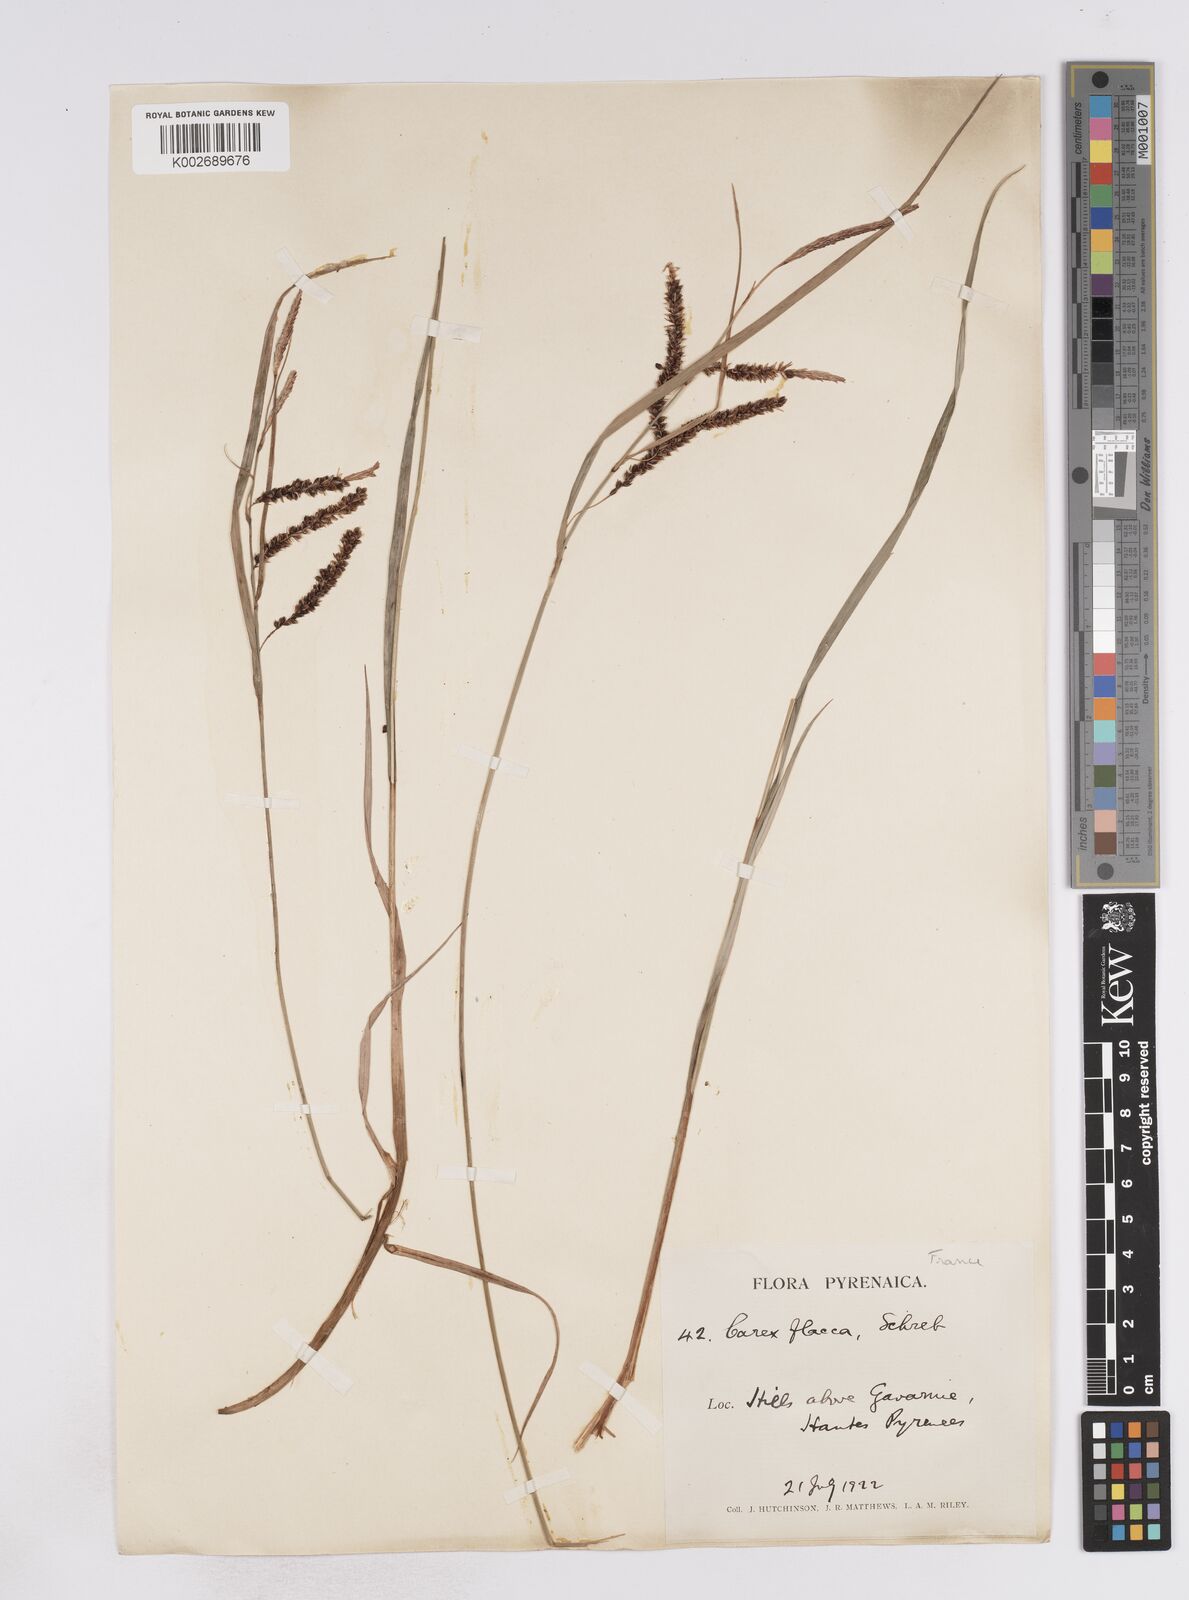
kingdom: Plantae
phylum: Tracheophyta
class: Liliopsida
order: Poales
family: Cyperaceae
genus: Carex
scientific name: Carex flacca
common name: Glaucous sedge
